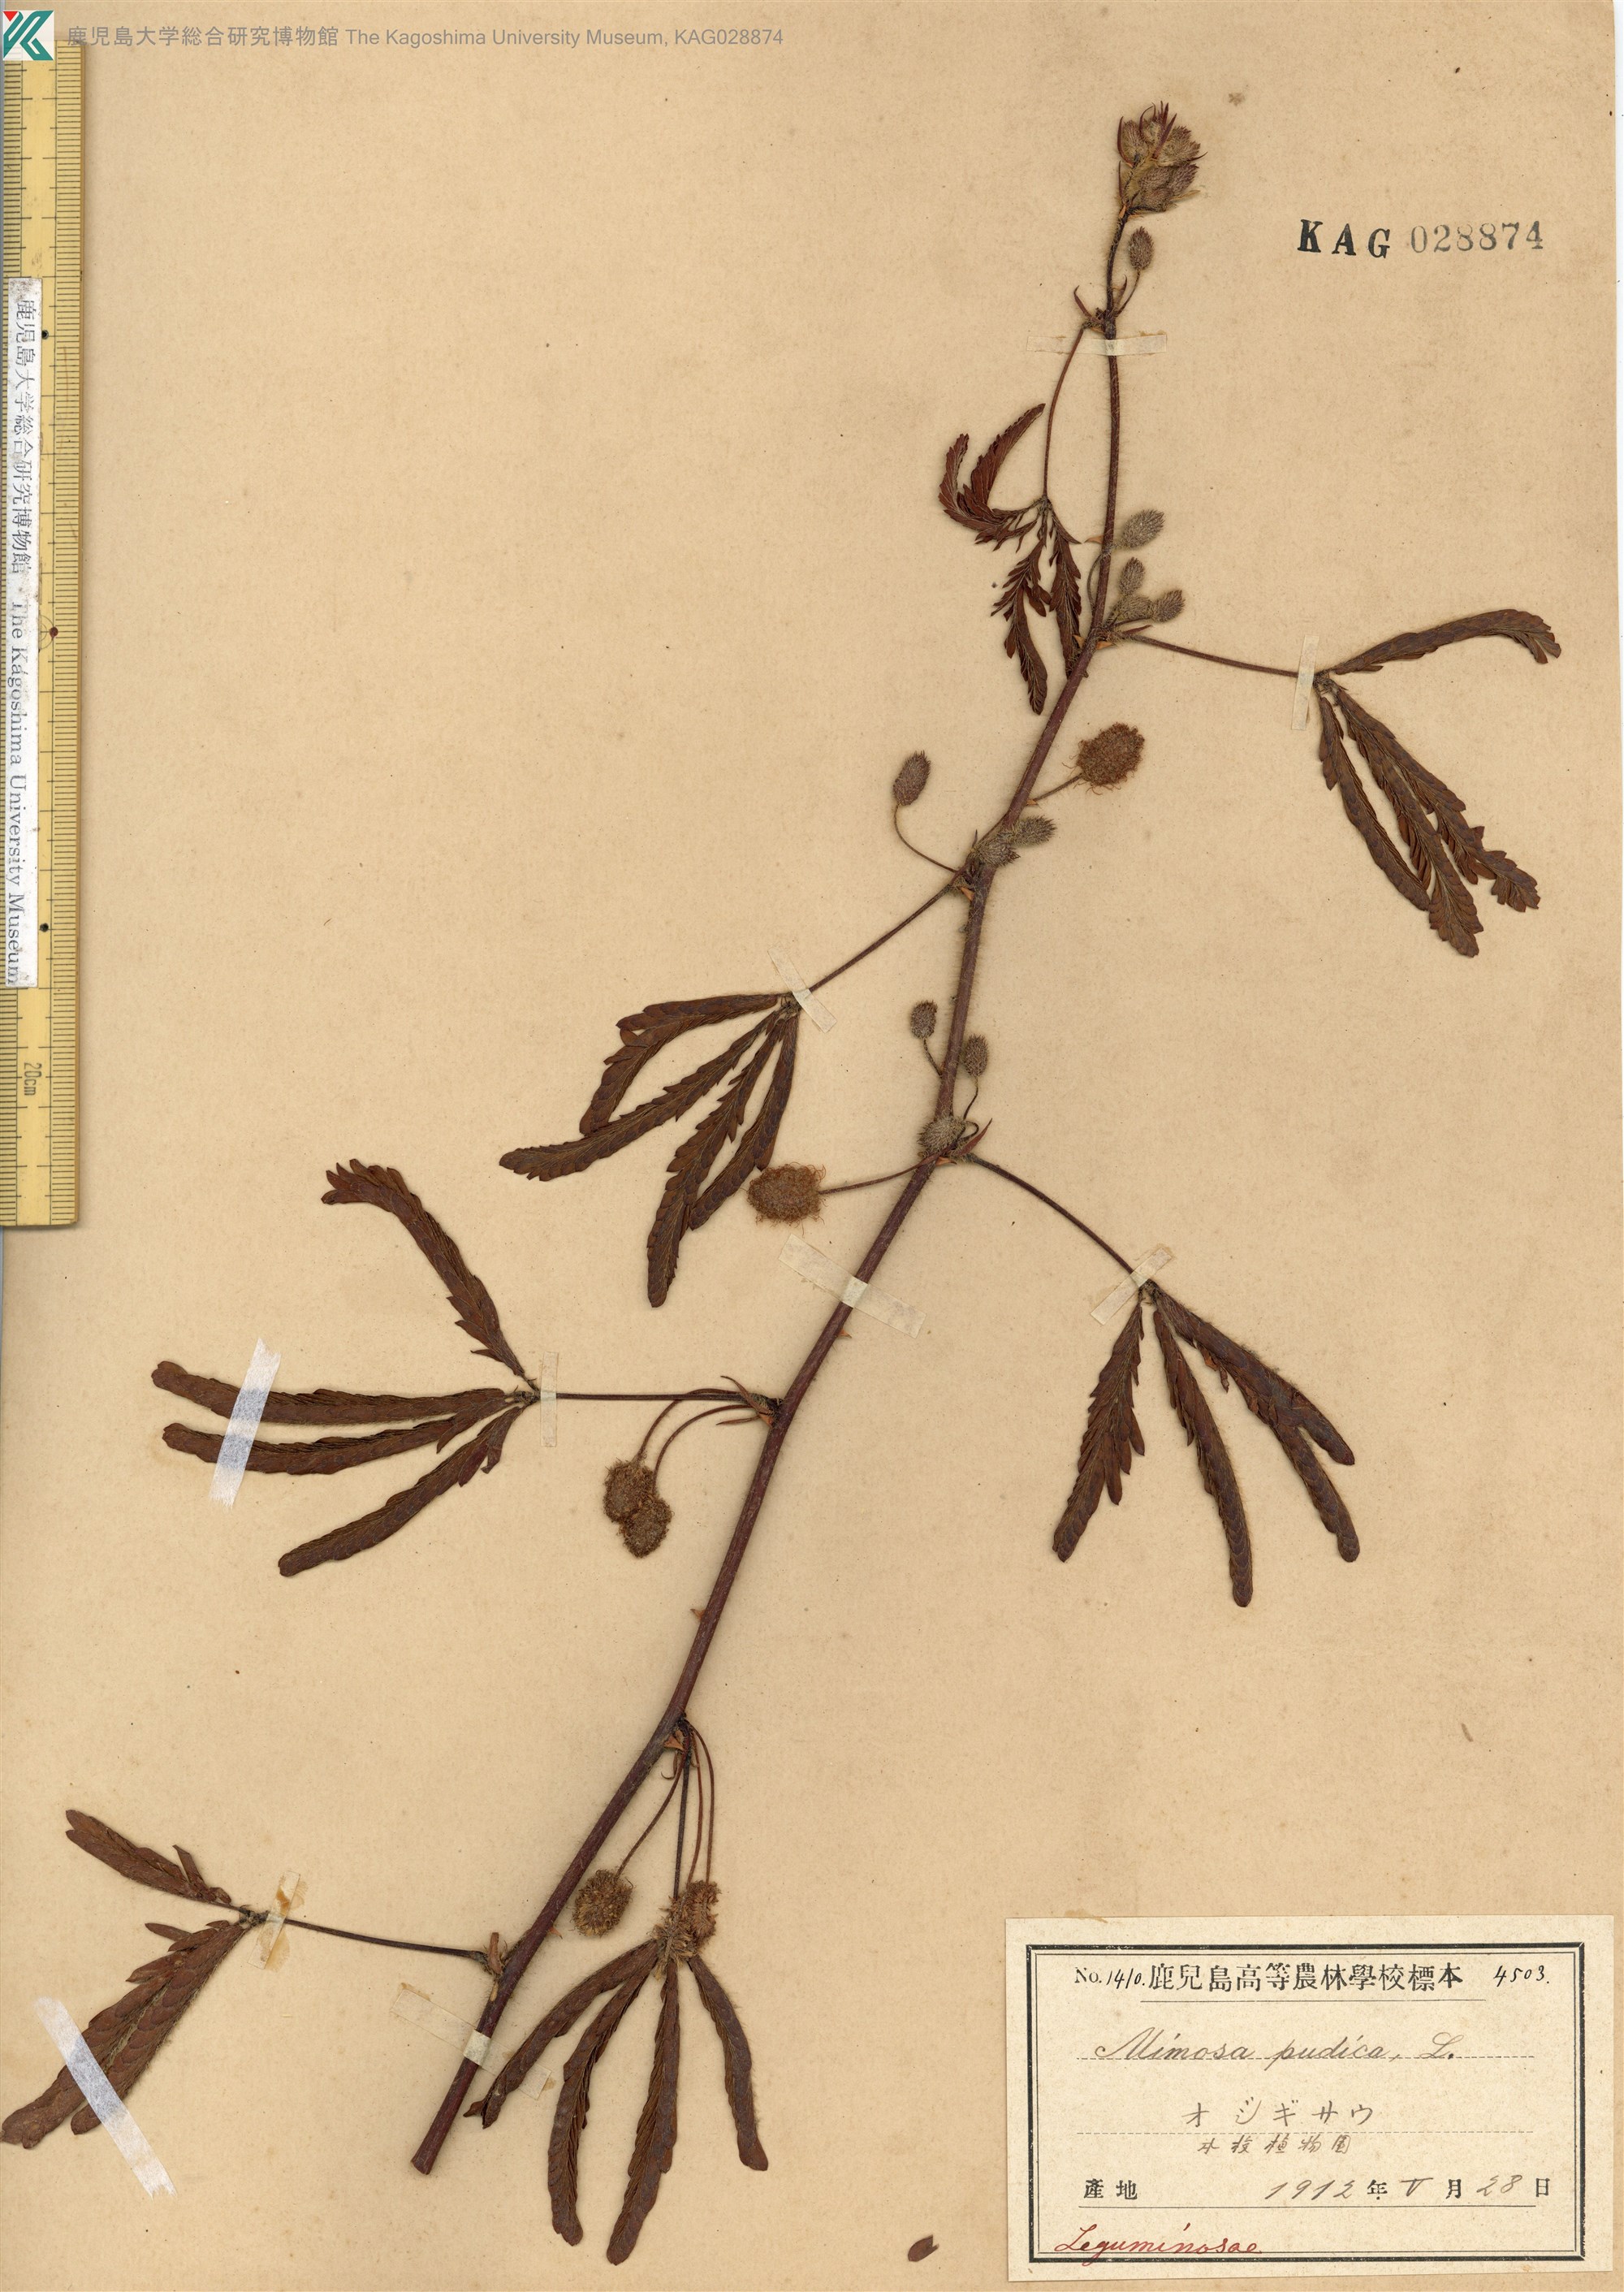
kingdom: Plantae
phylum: Tracheophyta
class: Magnoliopsida
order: Fabales
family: Fabaceae
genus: Mimosa
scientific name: Mimosa pudica
